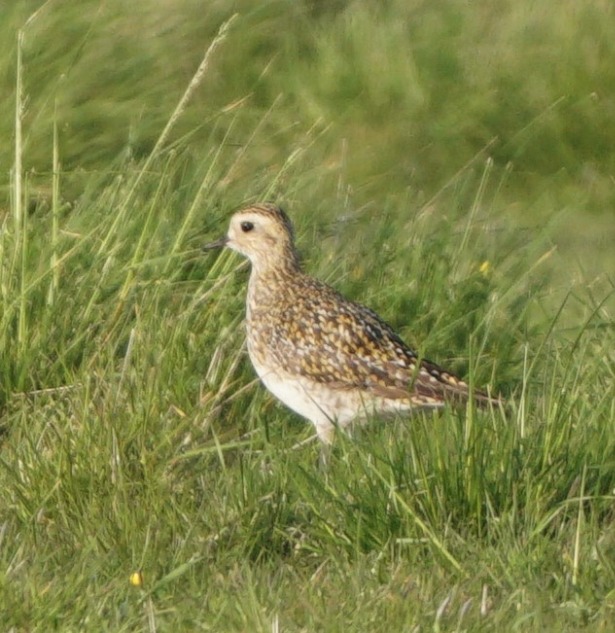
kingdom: Animalia
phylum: Chordata
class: Aves
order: Charadriiformes
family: Charadriidae
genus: Pluvialis
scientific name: Pluvialis apricaria
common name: Hjejle
